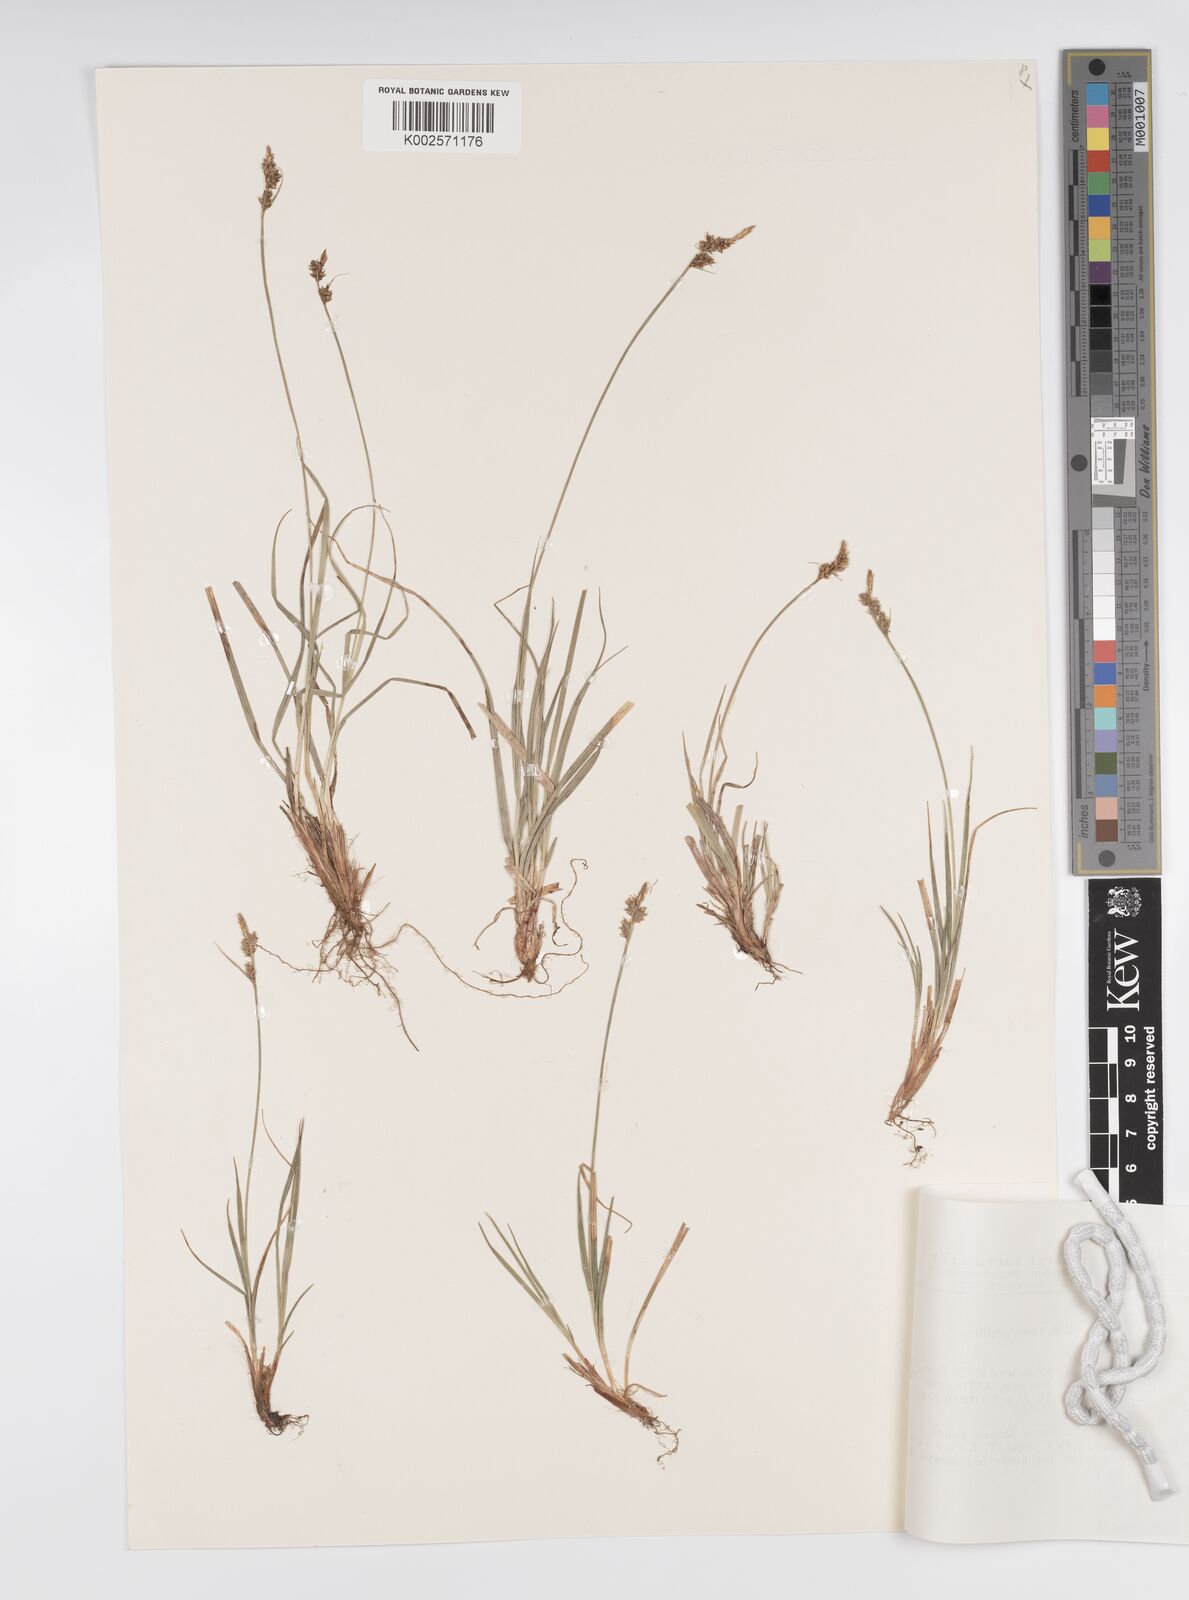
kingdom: Plantae
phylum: Tracheophyta
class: Liliopsida
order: Poales
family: Cyperaceae
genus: Carex
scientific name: Carex pilulifera
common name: Pill sedge
